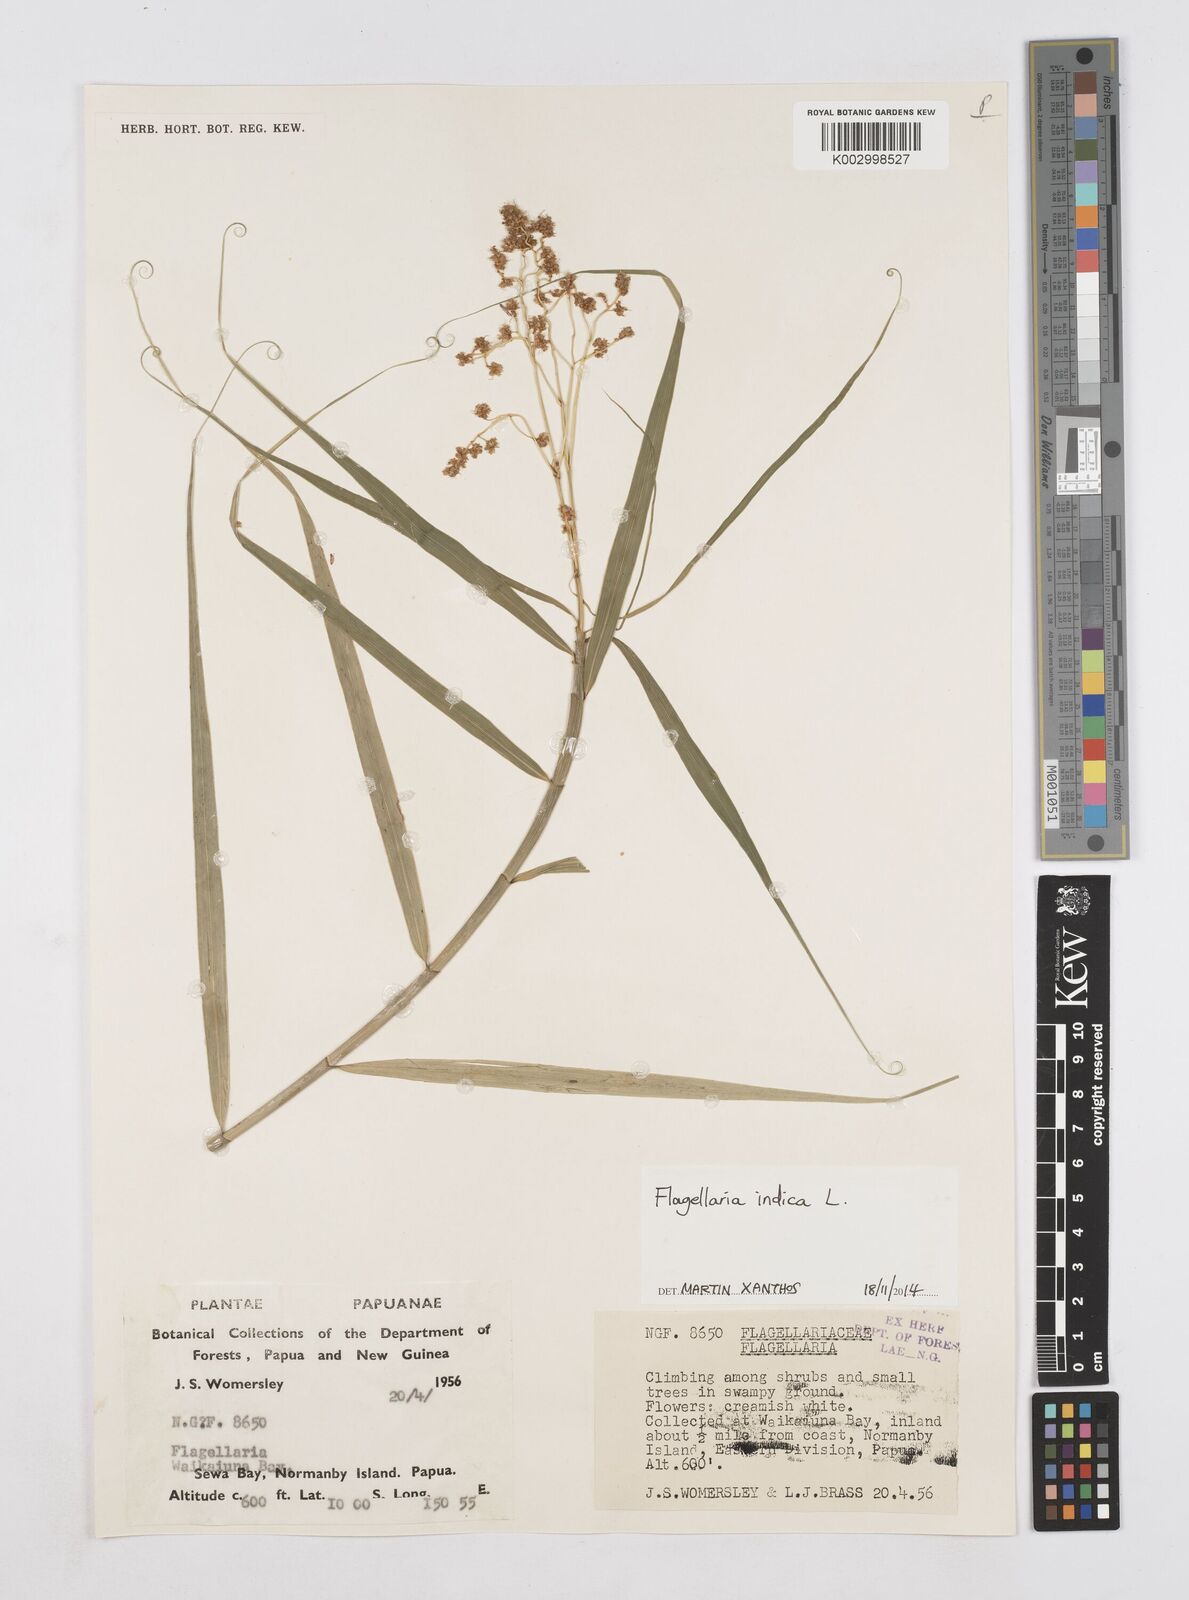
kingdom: Plantae
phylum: Tracheophyta
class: Liliopsida
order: Poales
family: Flagellariaceae
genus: Flagellaria
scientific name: Flagellaria indica
